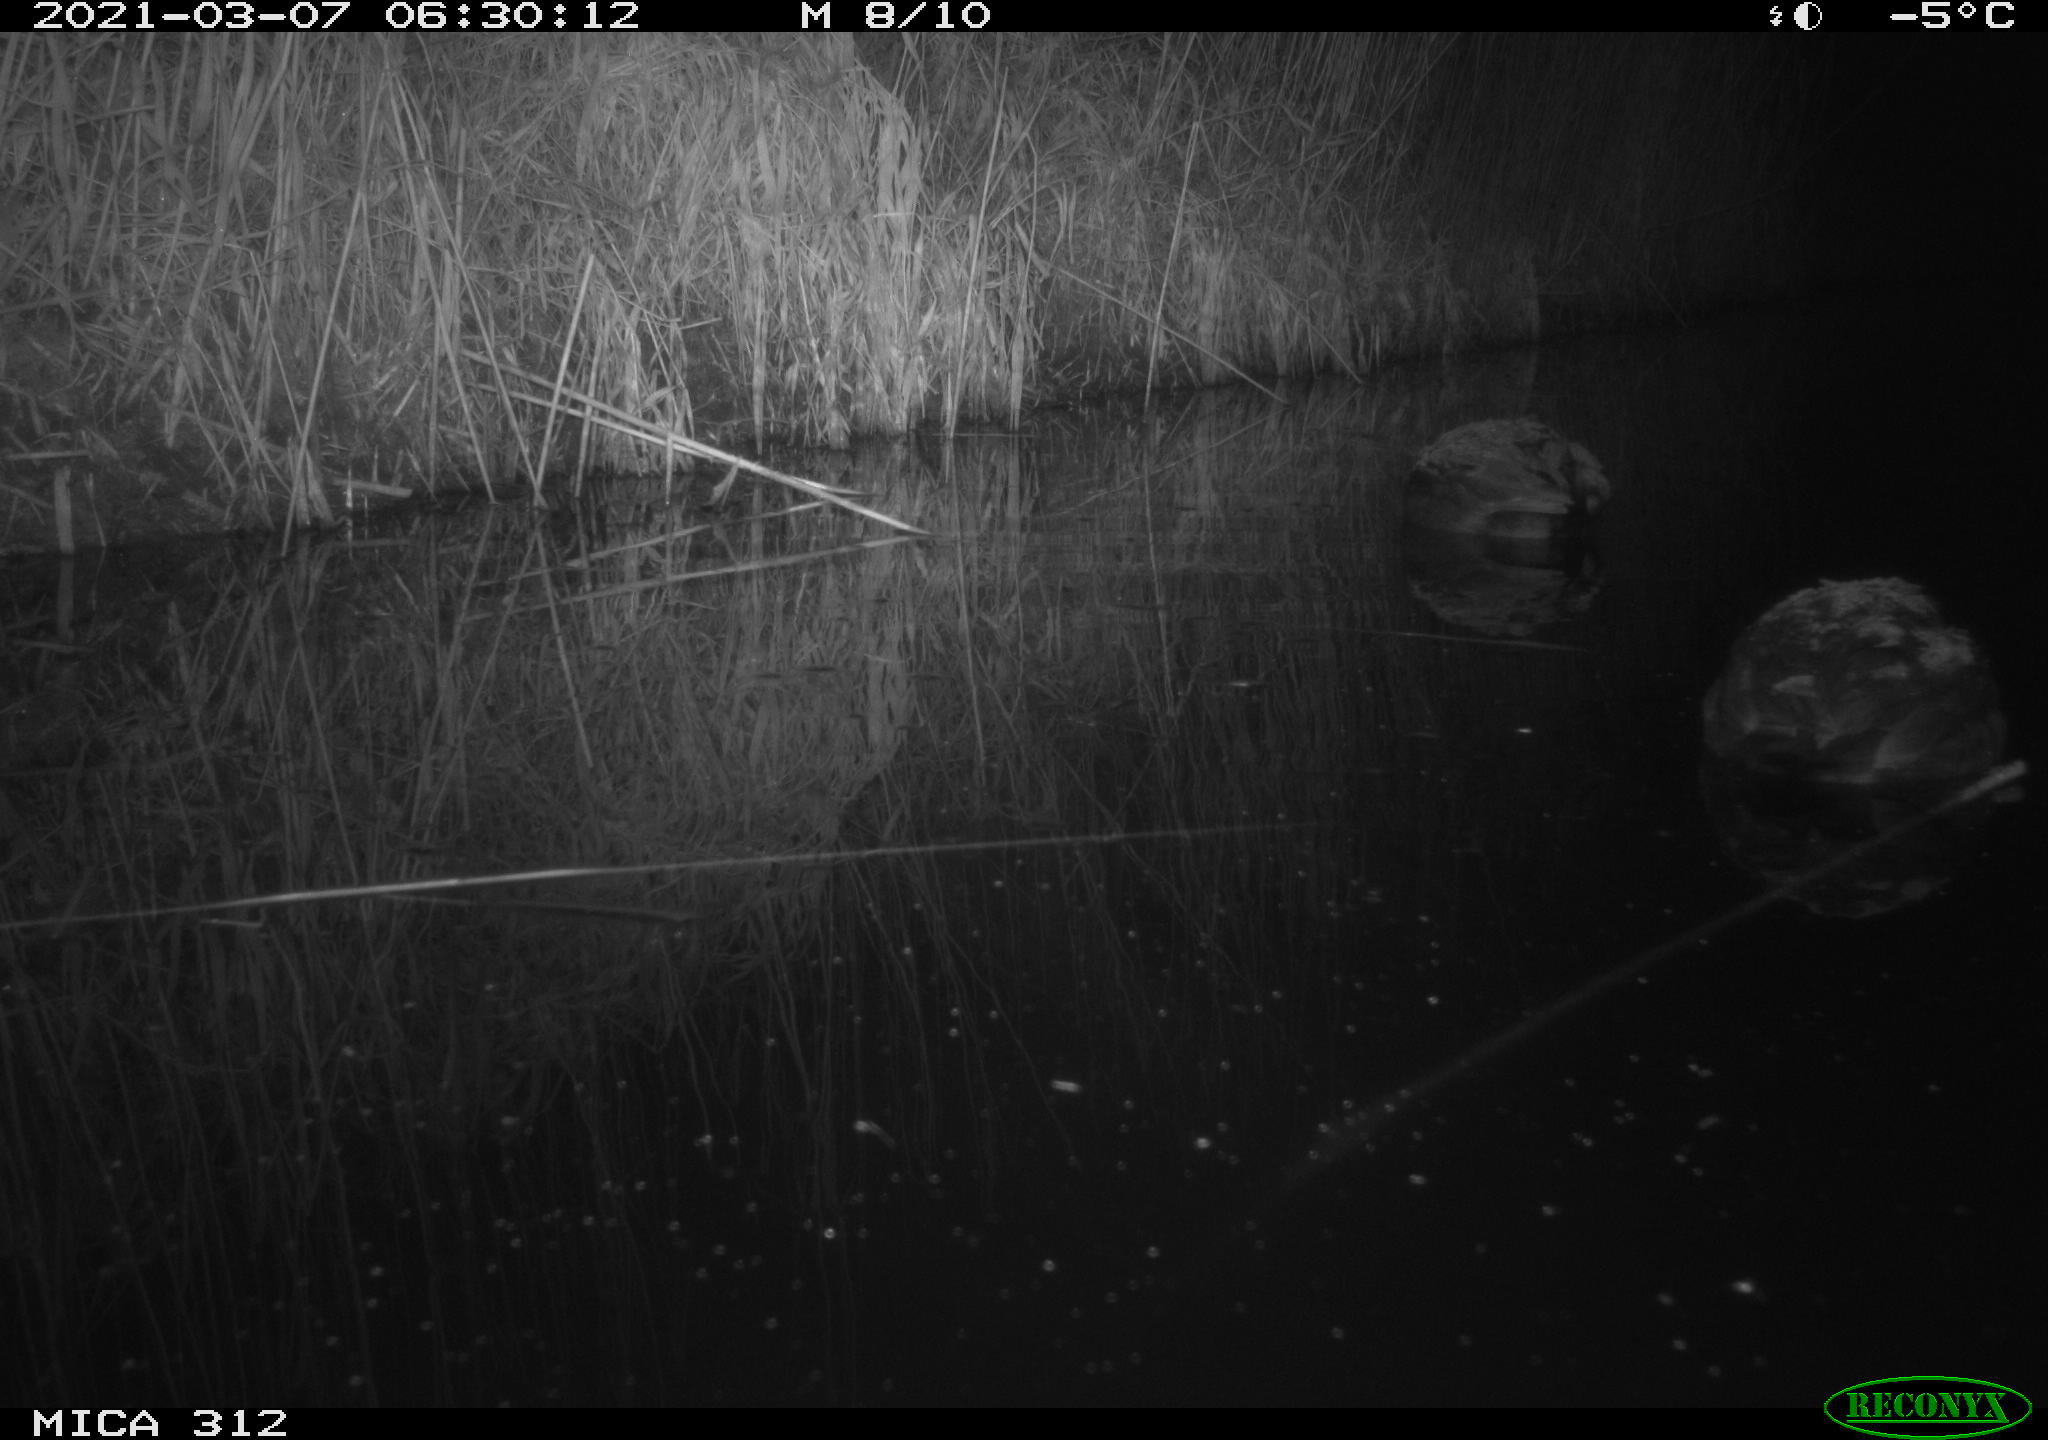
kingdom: Animalia
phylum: Chordata
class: Aves
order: Gruiformes
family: Rallidae
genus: Fulica
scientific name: Fulica atra
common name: Eurasian coot
